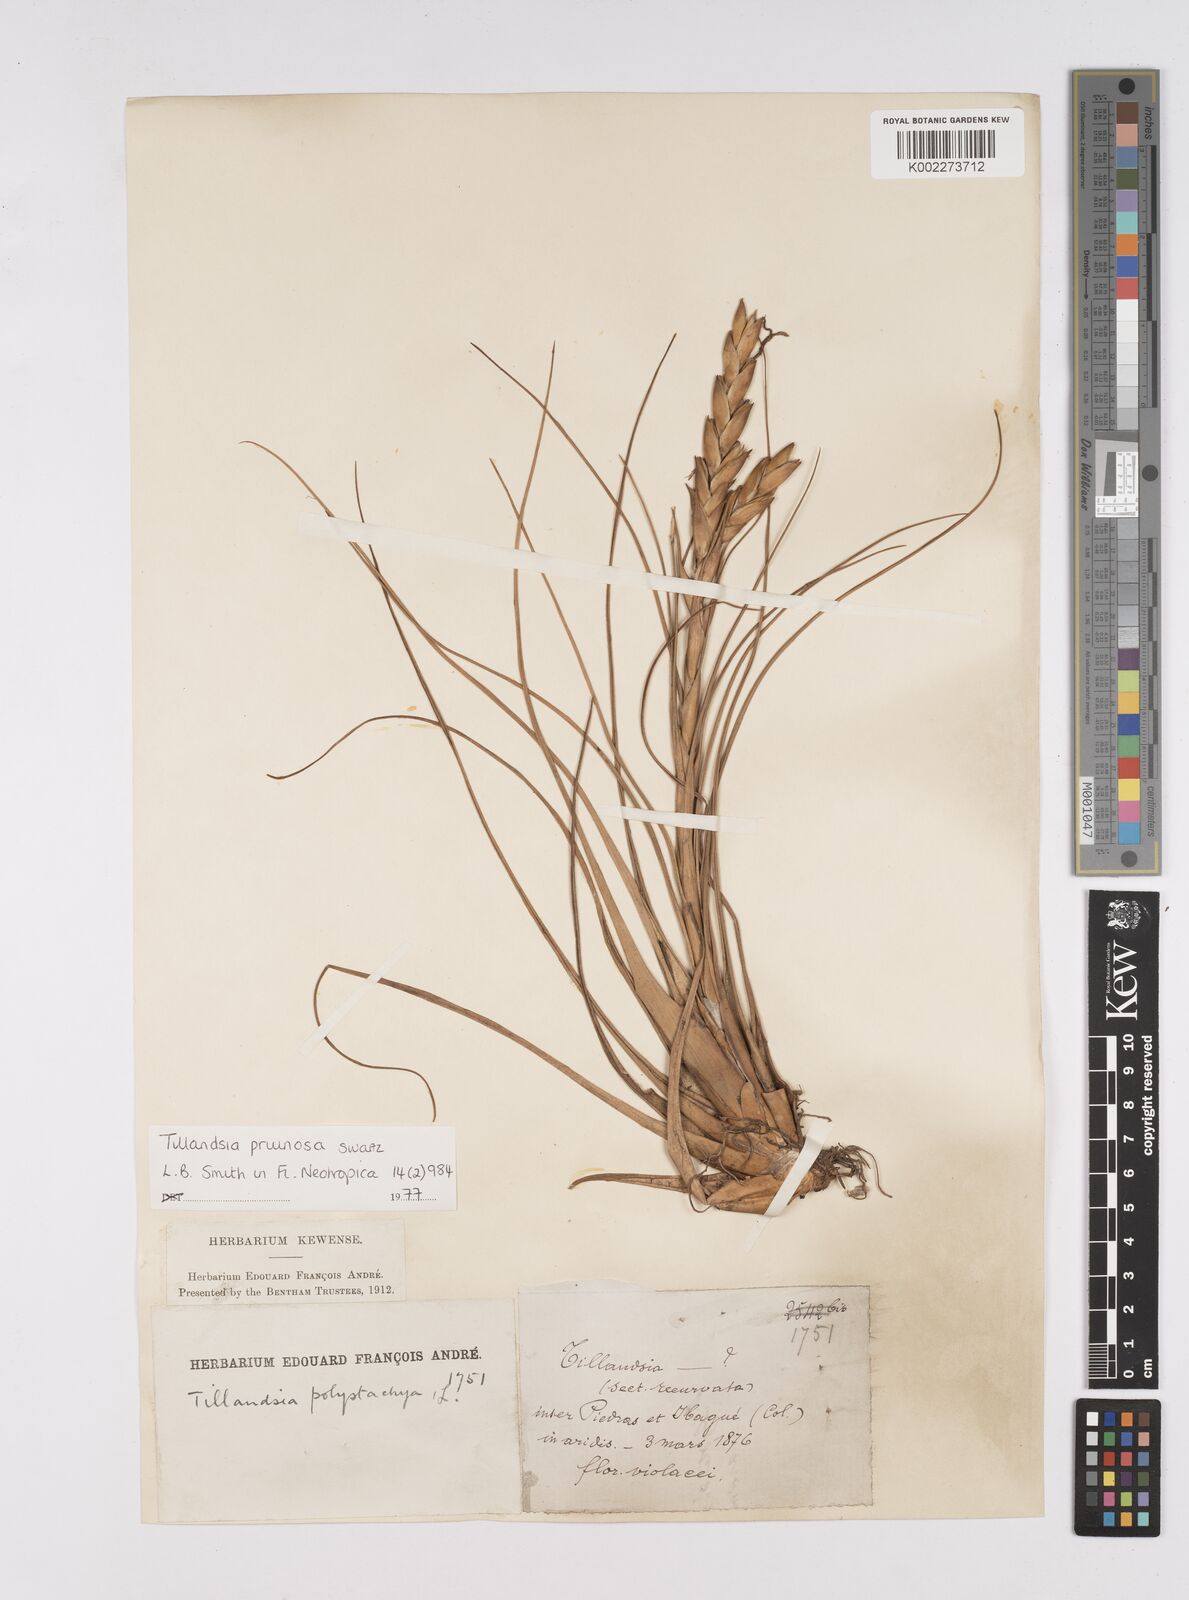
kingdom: Plantae
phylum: Tracheophyta
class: Liliopsida
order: Poales
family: Bromeliaceae
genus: Tillandsia
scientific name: Tillandsia pruinosa
